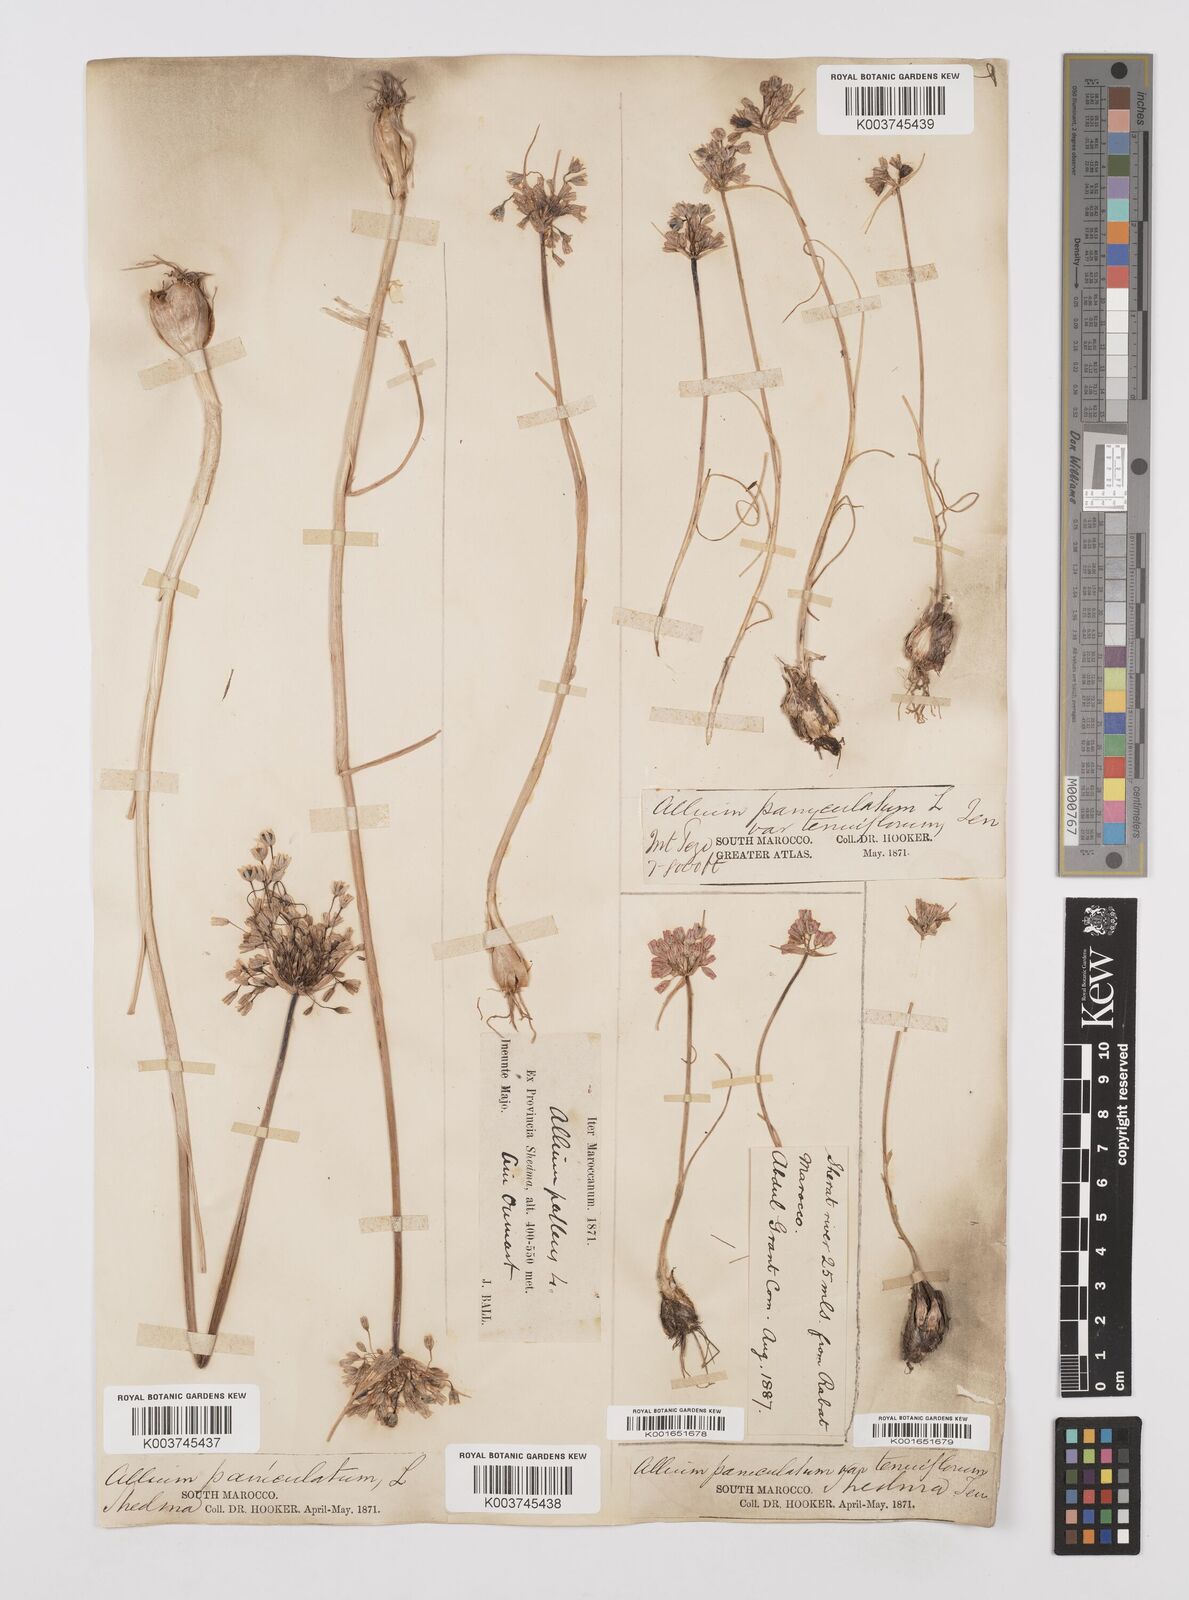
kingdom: Plantae
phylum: Tracheophyta
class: Liliopsida
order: Asparagales
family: Amaryllidaceae
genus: Allium
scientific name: Allium paniculatum
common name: Pale garlic
